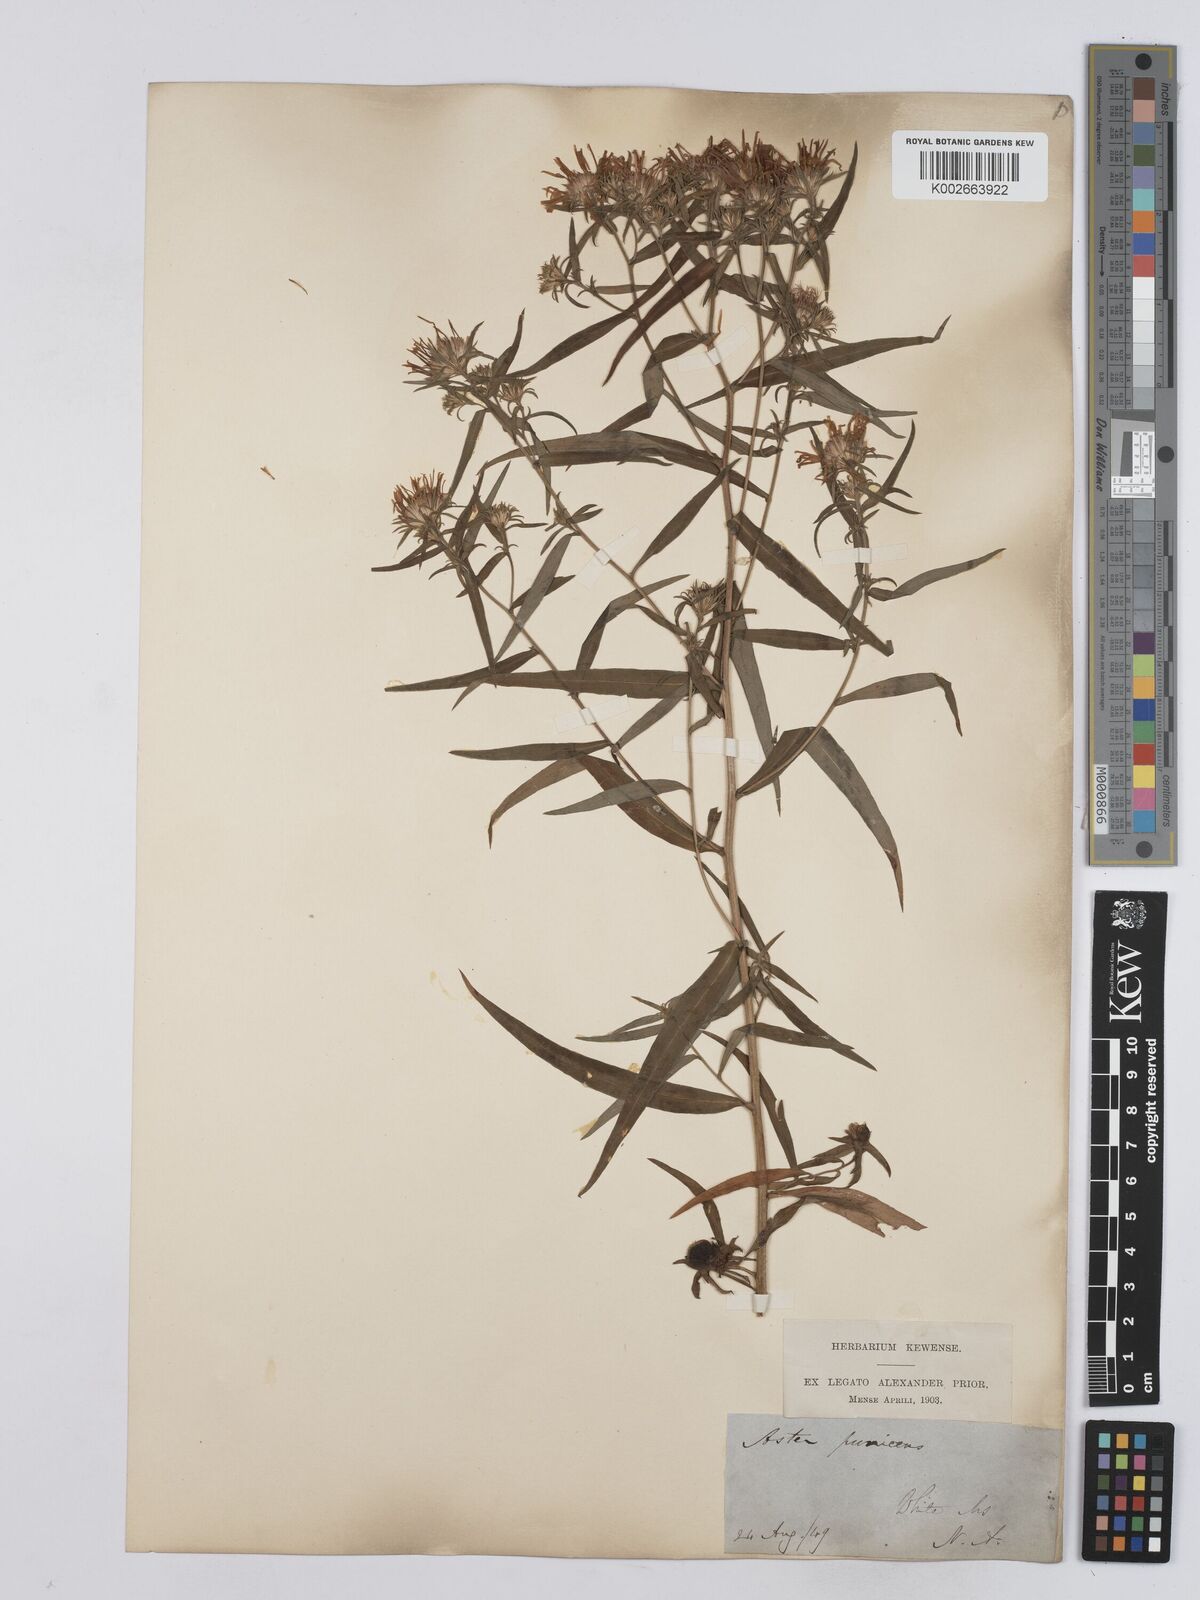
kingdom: Plantae
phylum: Tracheophyta
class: Magnoliopsida
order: Asterales
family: Asteraceae
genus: Symphyotrichum
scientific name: Symphyotrichum puniceum
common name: Bog aster
